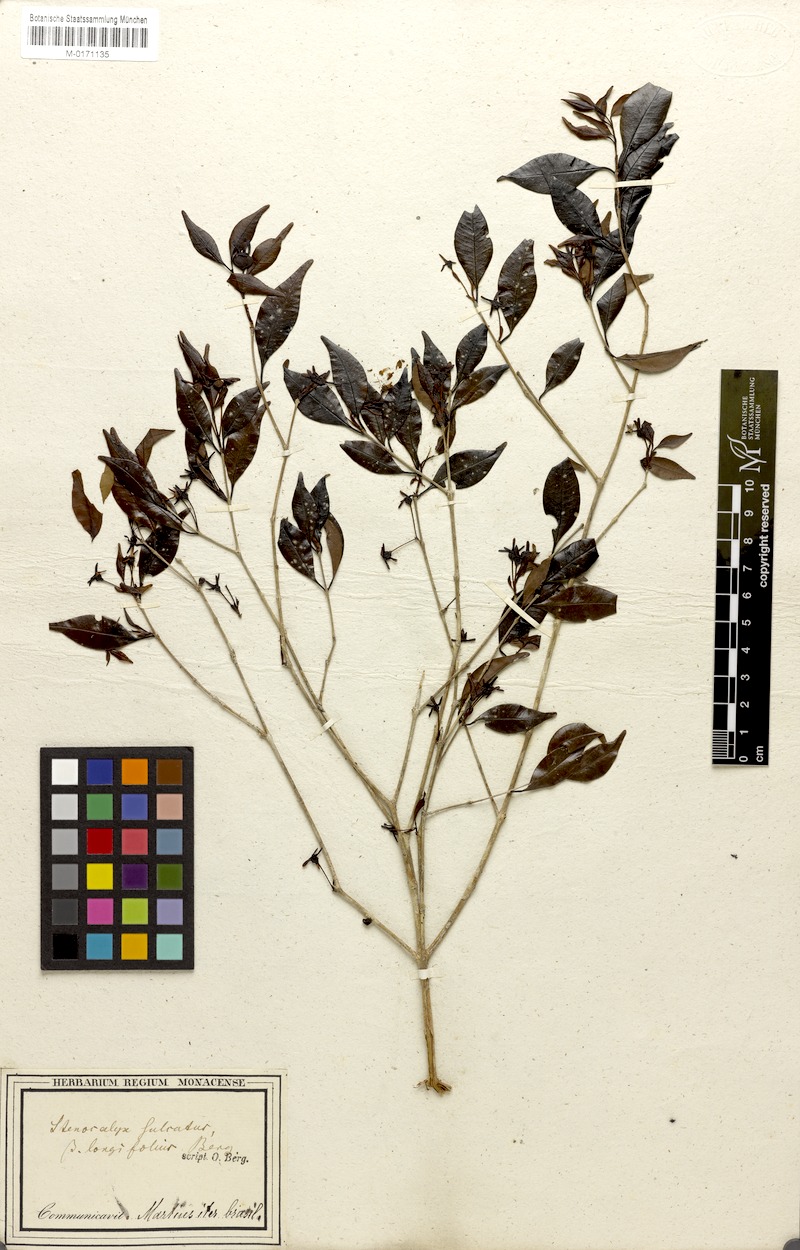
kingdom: Plantae
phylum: Tracheophyta
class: Magnoliopsida
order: Myrtales
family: Myrtaceae
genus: Eugenia
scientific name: Eugenia sulcata
